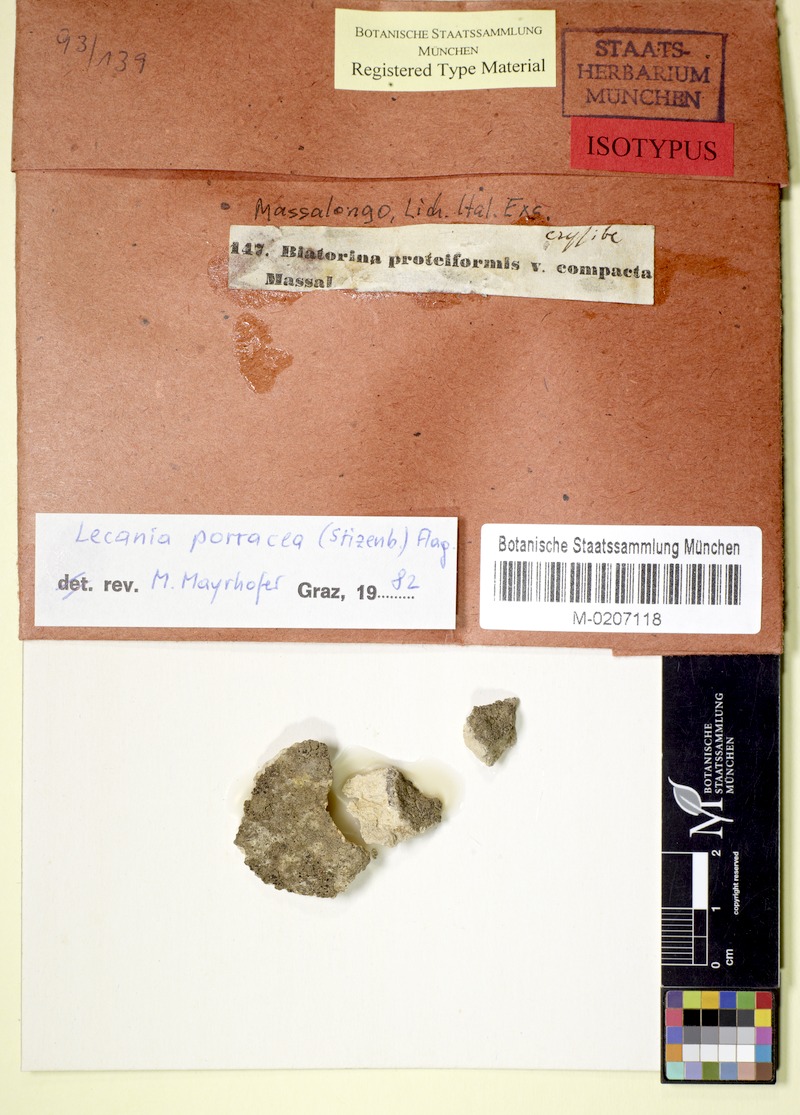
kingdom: Fungi
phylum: Ascomycota
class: Lecanoromycetes
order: Lecanorales
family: Ramalinaceae
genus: Lecania
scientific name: Lecania inundata
